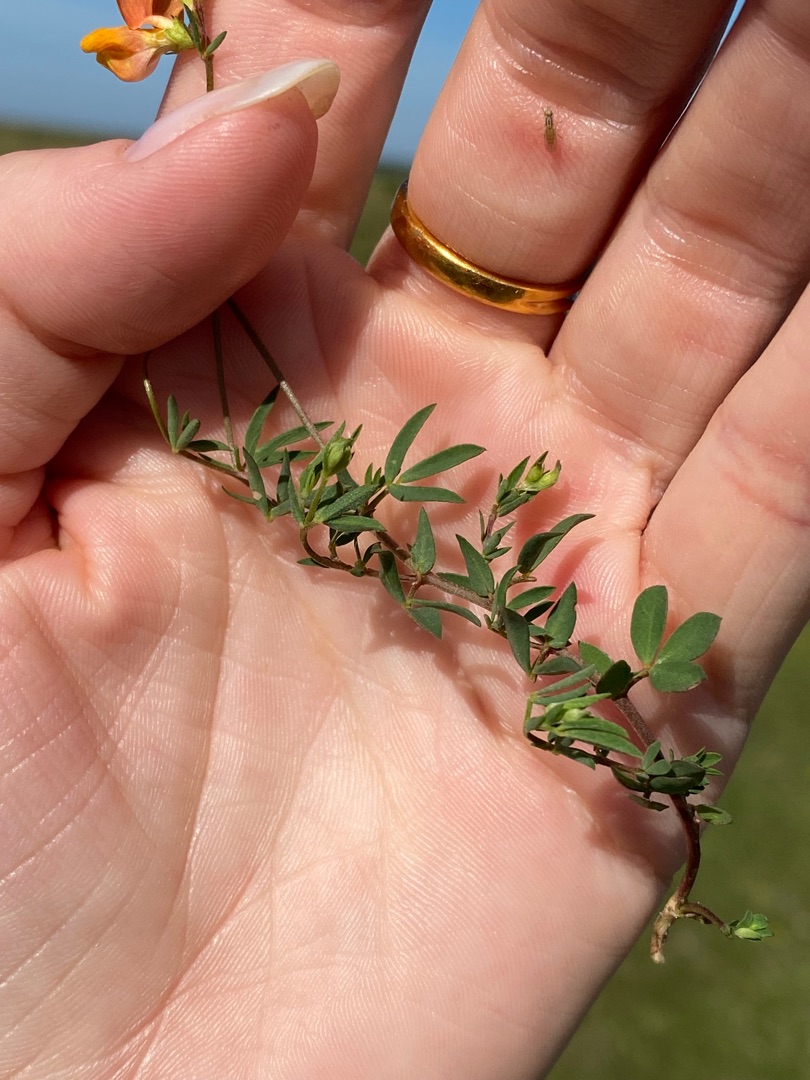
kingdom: Plantae
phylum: Tracheophyta
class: Magnoliopsida
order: Fabales
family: Fabaceae
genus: Lotus
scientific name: Lotus corniculatus
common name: Almindelig kællingetand
